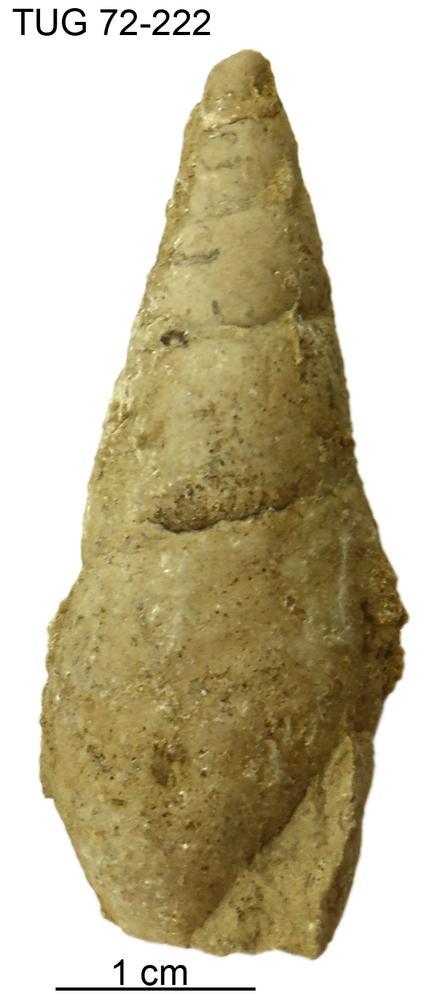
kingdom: Animalia
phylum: Mollusca
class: Gastropoda
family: Subulitidae
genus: Subulites
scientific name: Subulites amphora
